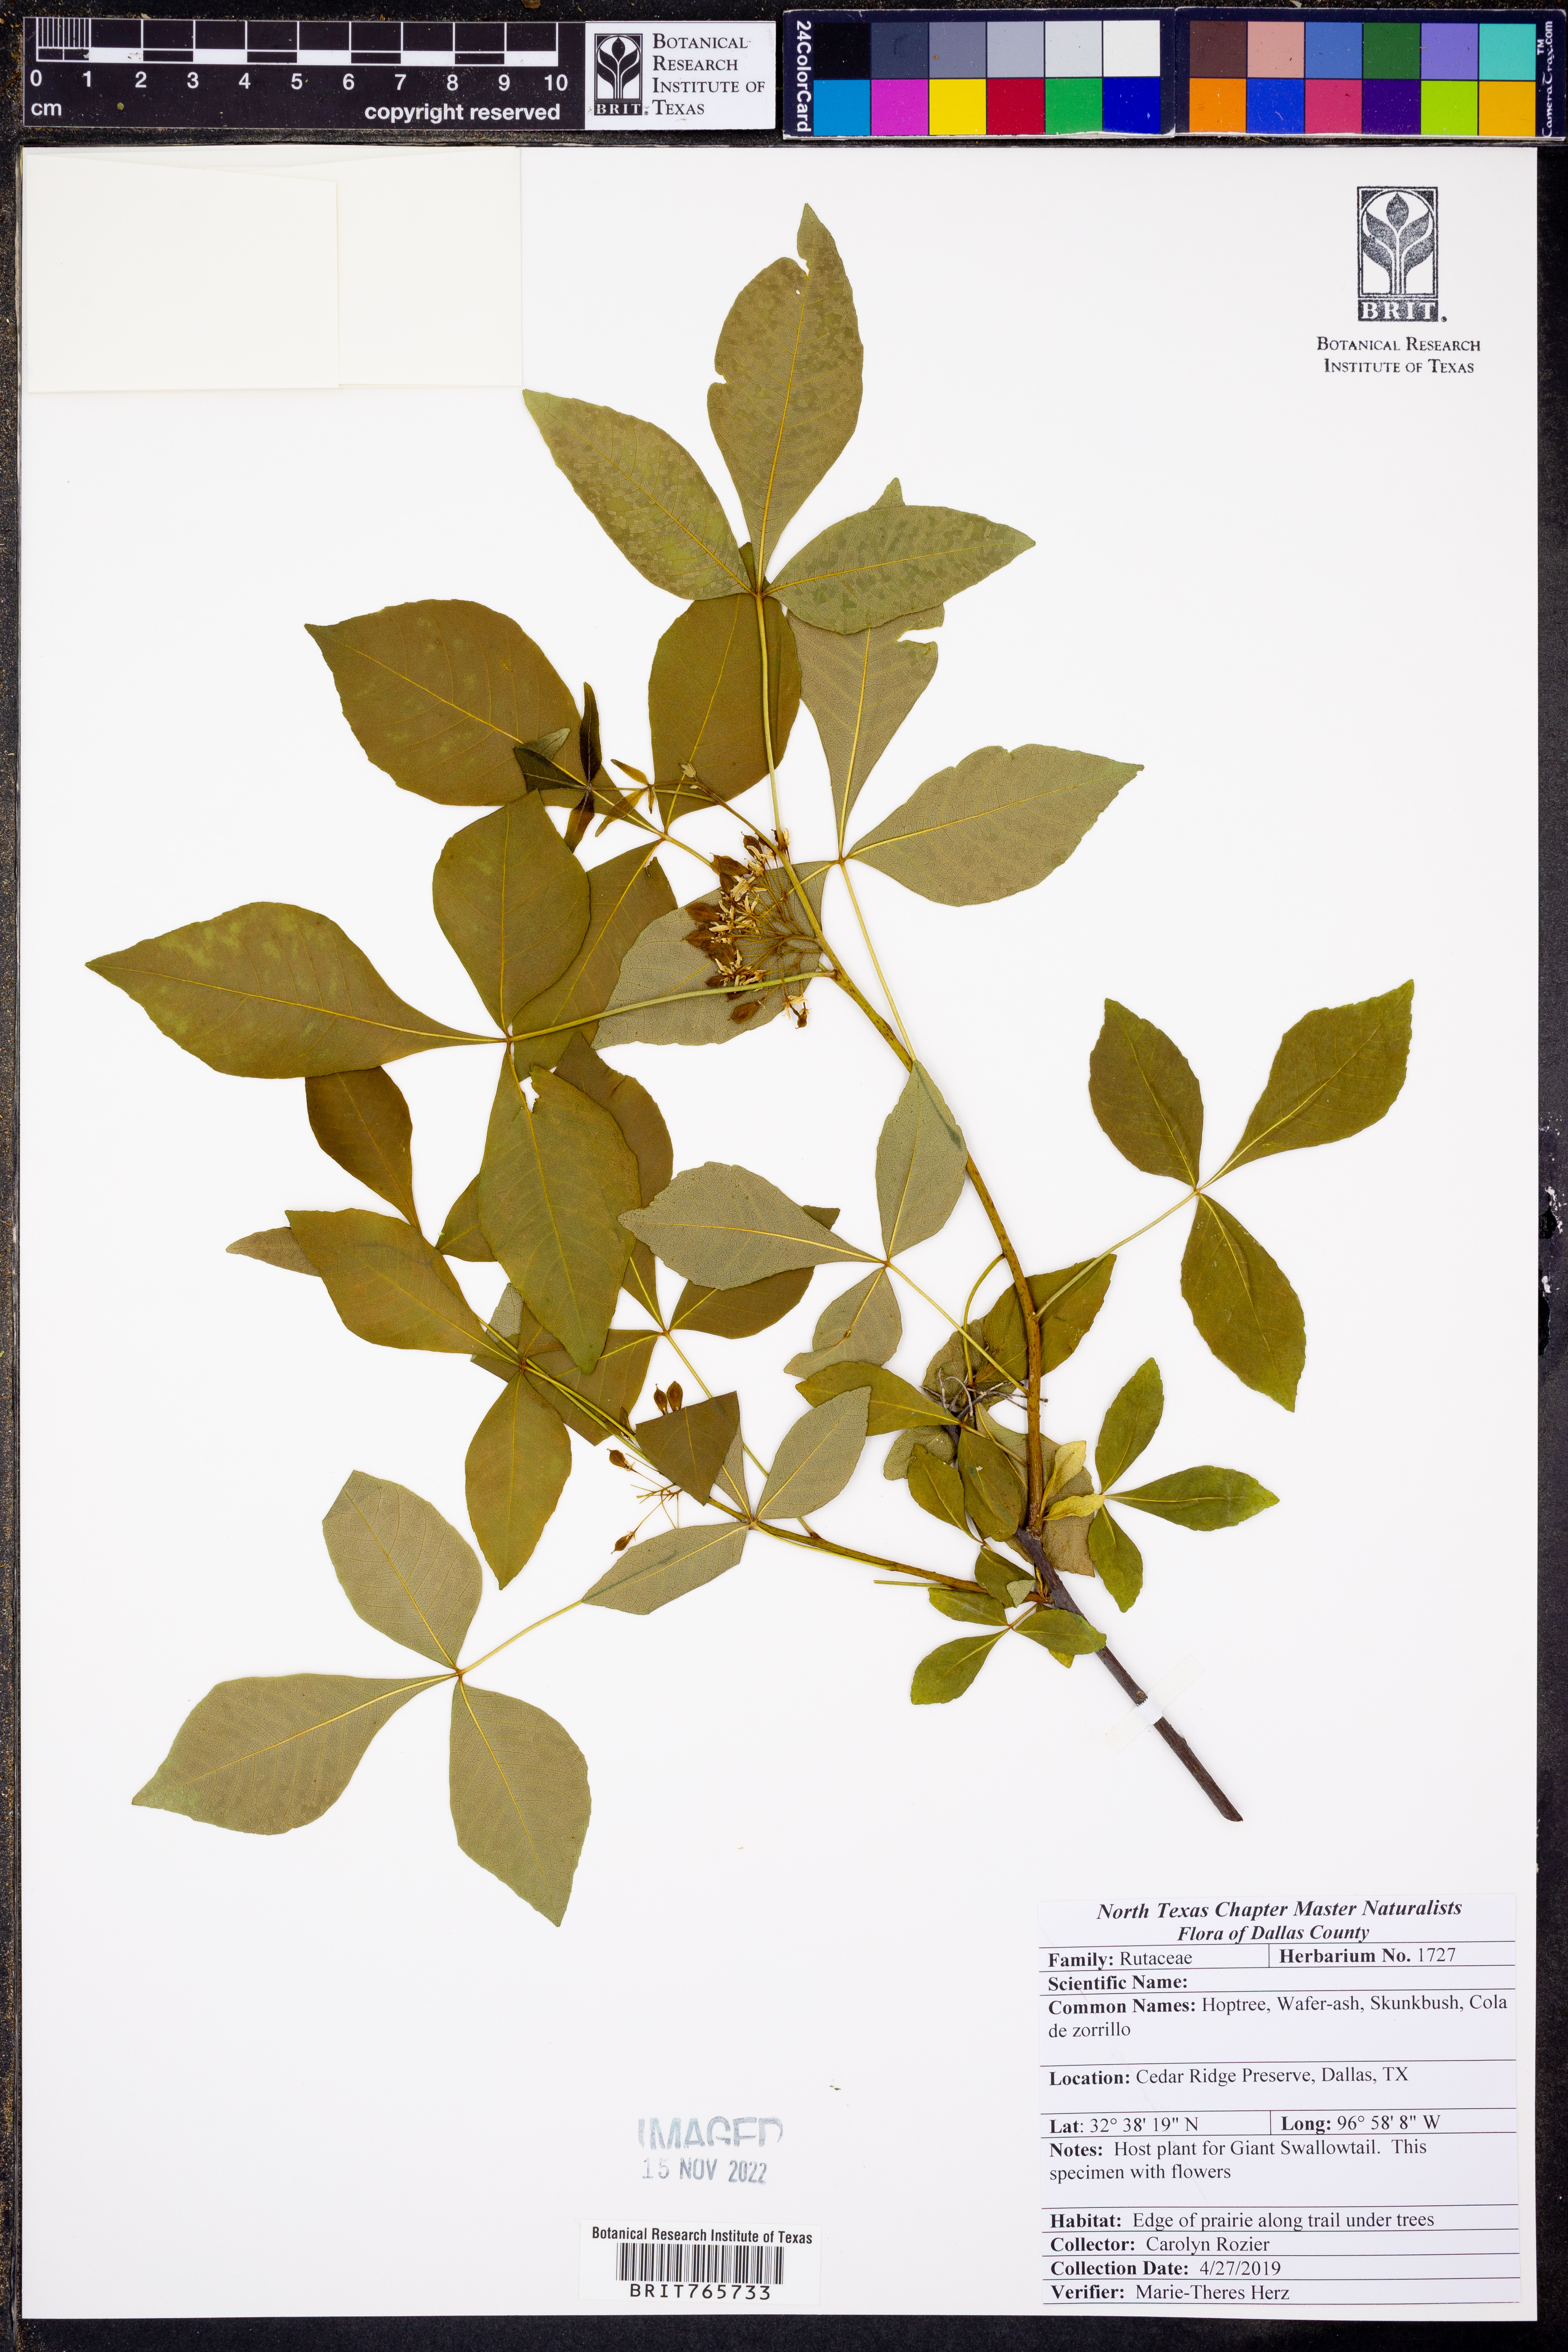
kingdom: Plantae
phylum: Tracheophyta
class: Magnoliopsida
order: Sapindales
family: Rutaceae
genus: Ptelea
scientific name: Ptelea trifoliata
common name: Common hop-tree
